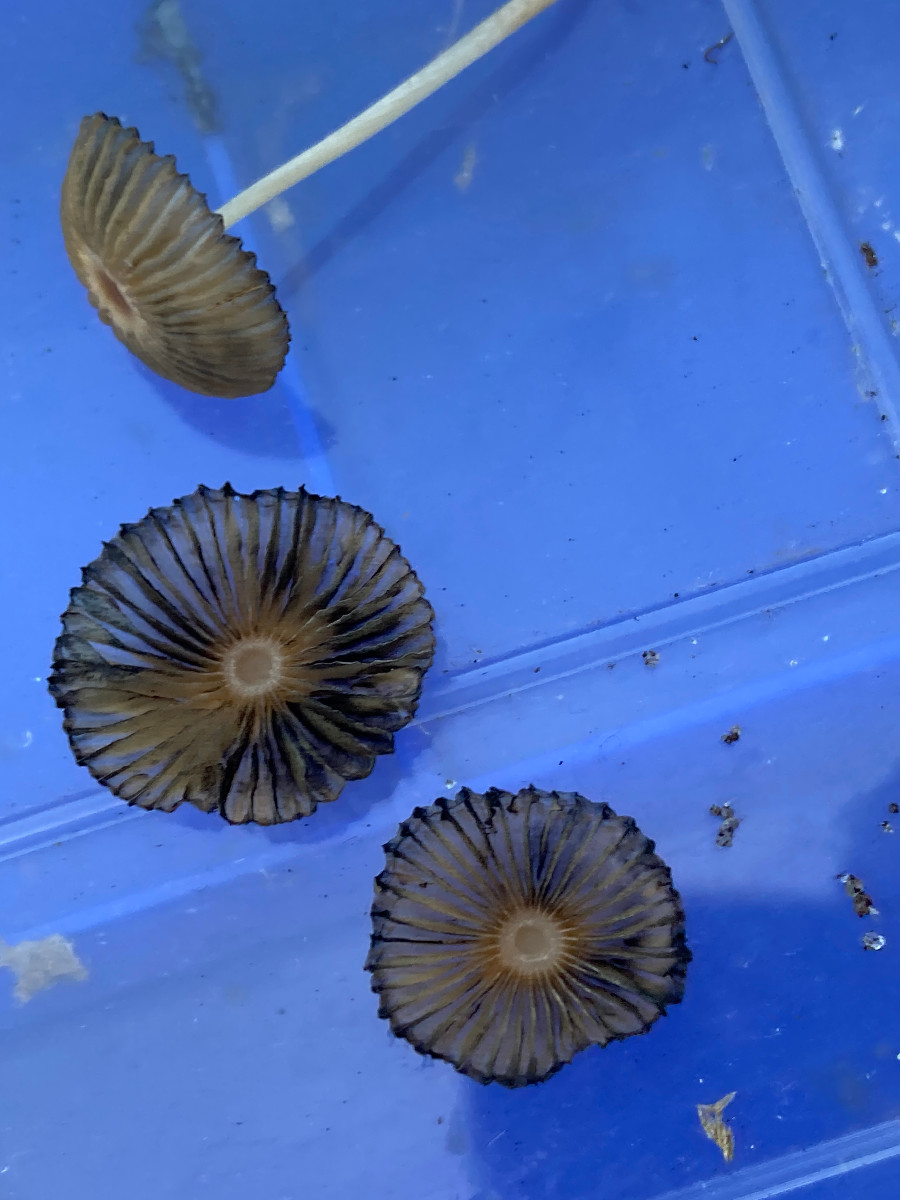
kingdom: Fungi
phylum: Basidiomycota
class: Agaricomycetes
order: Agaricales
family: Psathyrellaceae
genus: Parasola
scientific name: Parasola
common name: hjulhat
